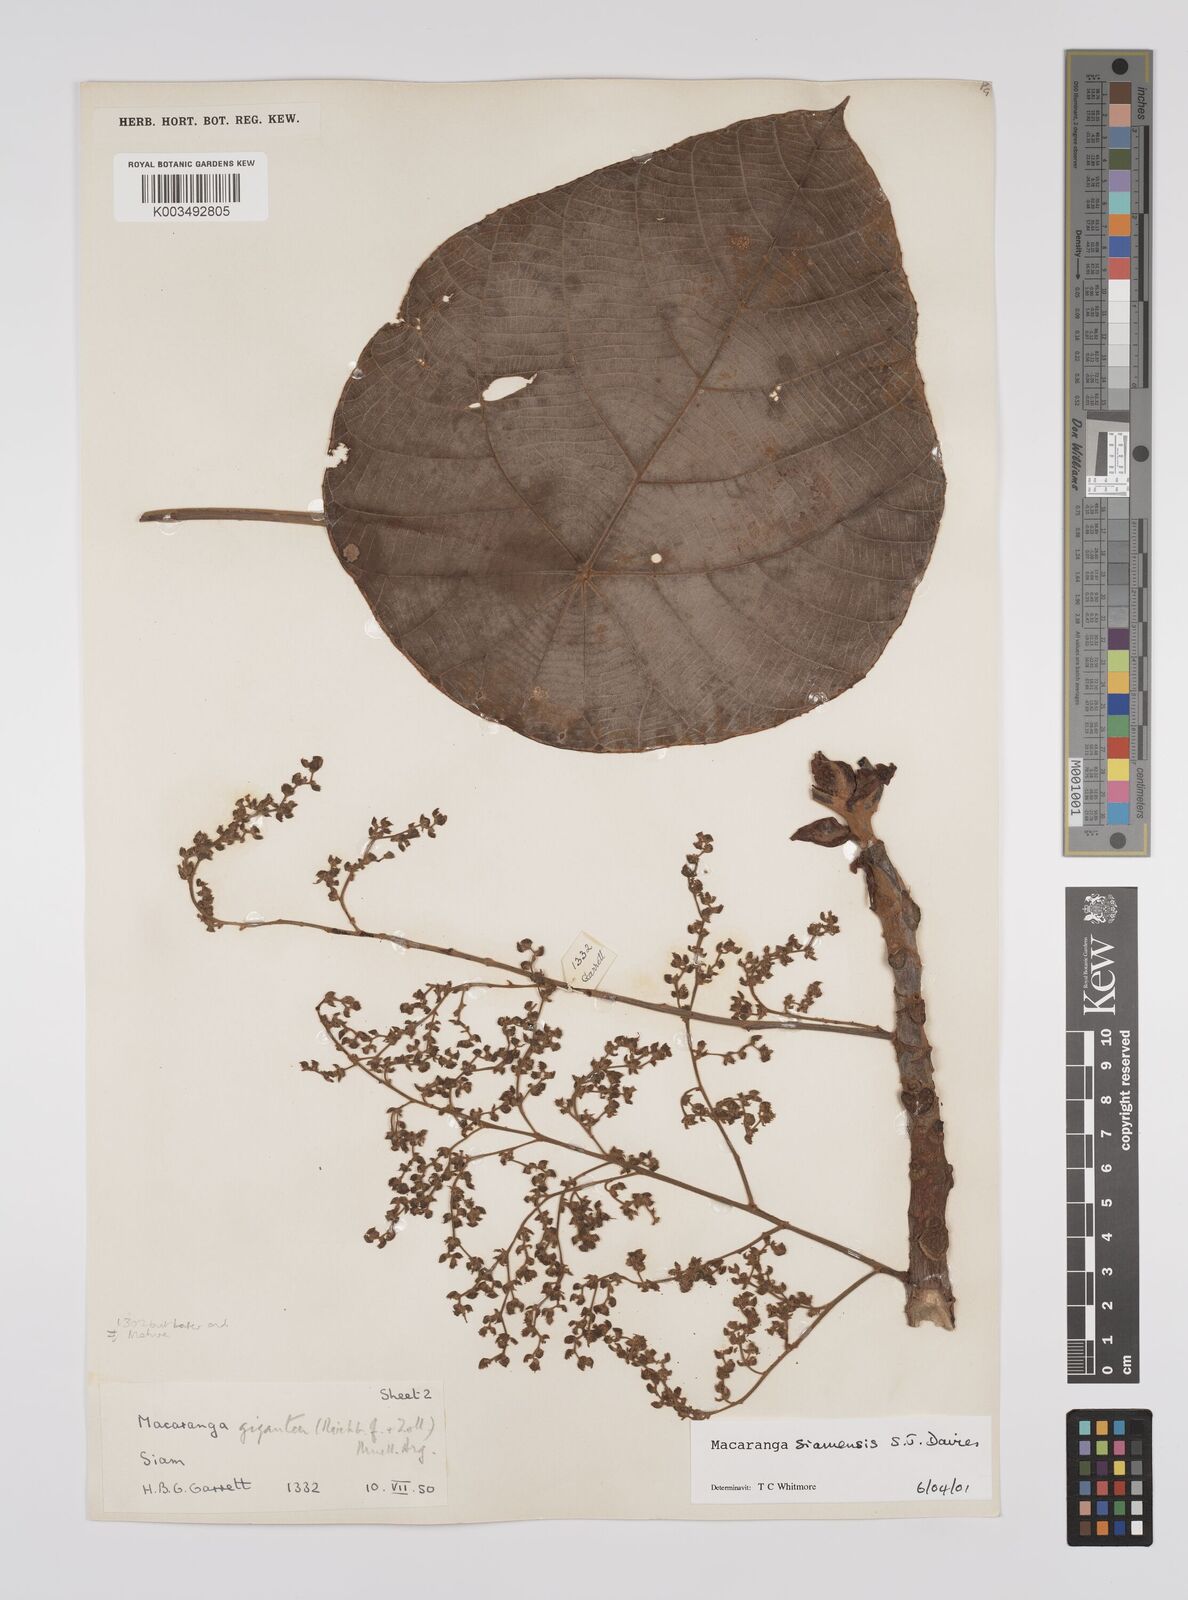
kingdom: Plantae
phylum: Tracheophyta
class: Magnoliopsida
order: Malpighiales
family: Euphorbiaceae
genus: Macaranga
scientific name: Macaranga siamensis
